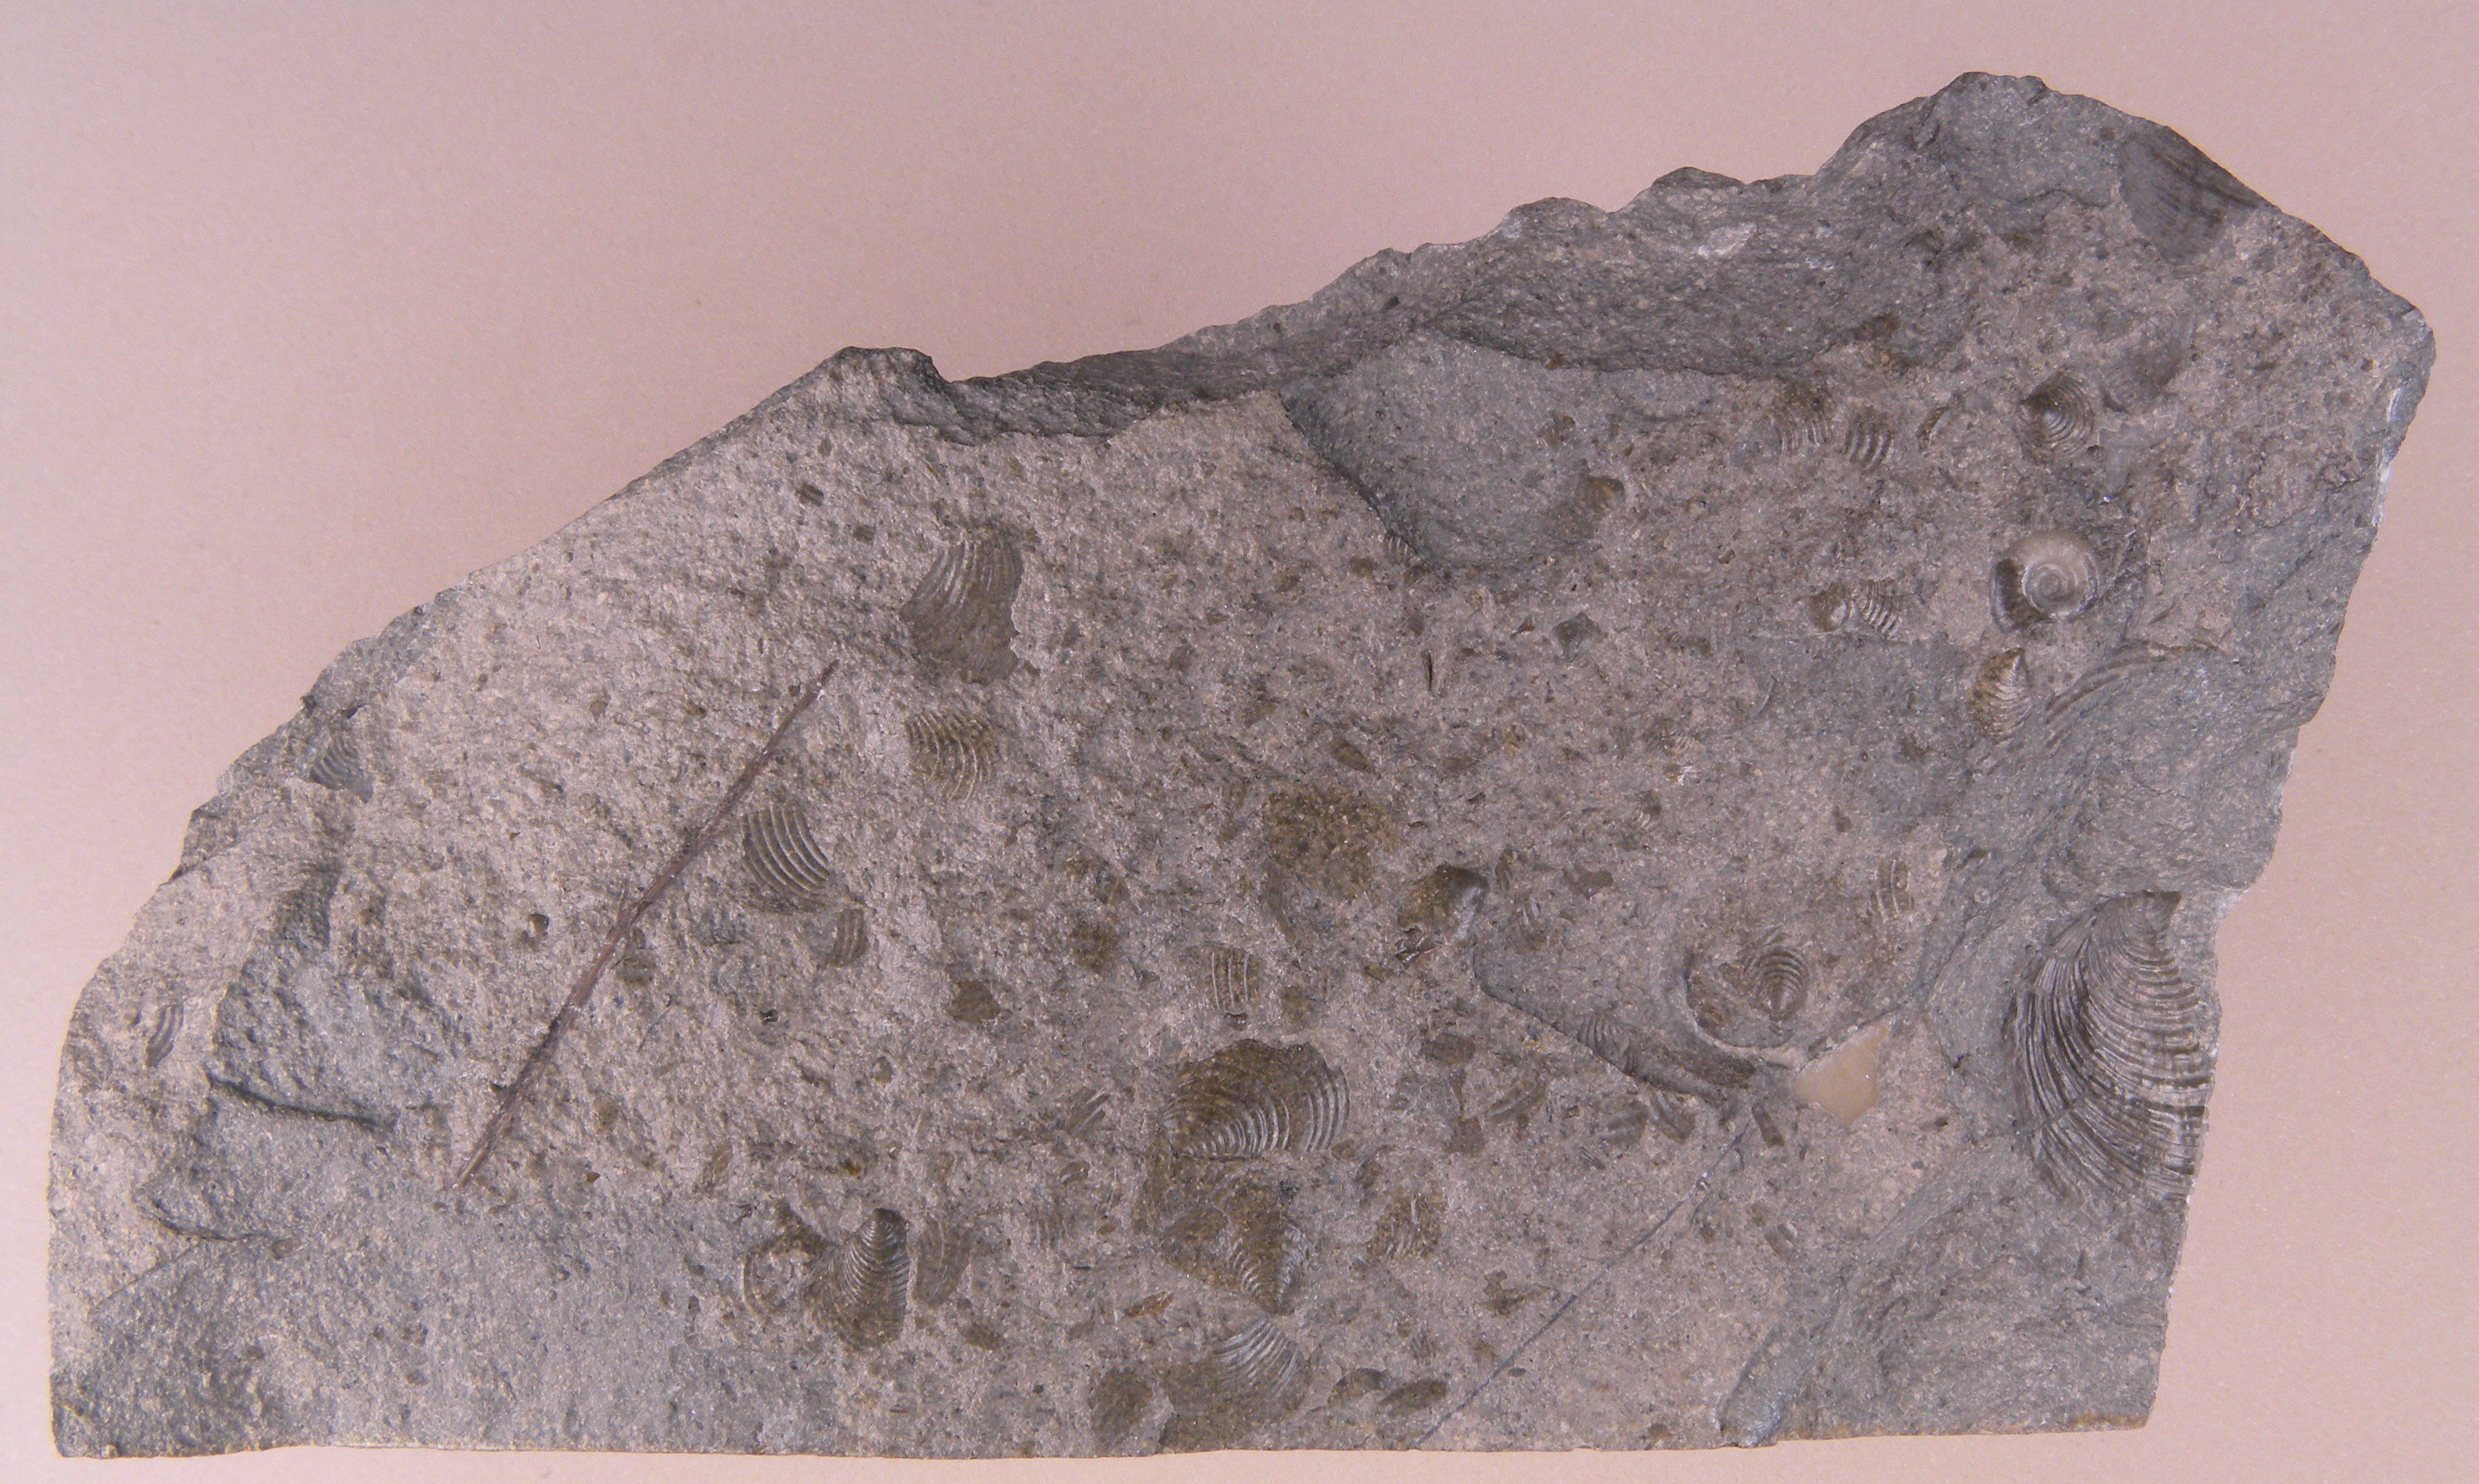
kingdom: Animalia
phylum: Mollusca
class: Bivalvia
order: Mytilida
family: Mytilidae
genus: Steinmannia
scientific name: Steinmannia Posidonomya bronni
